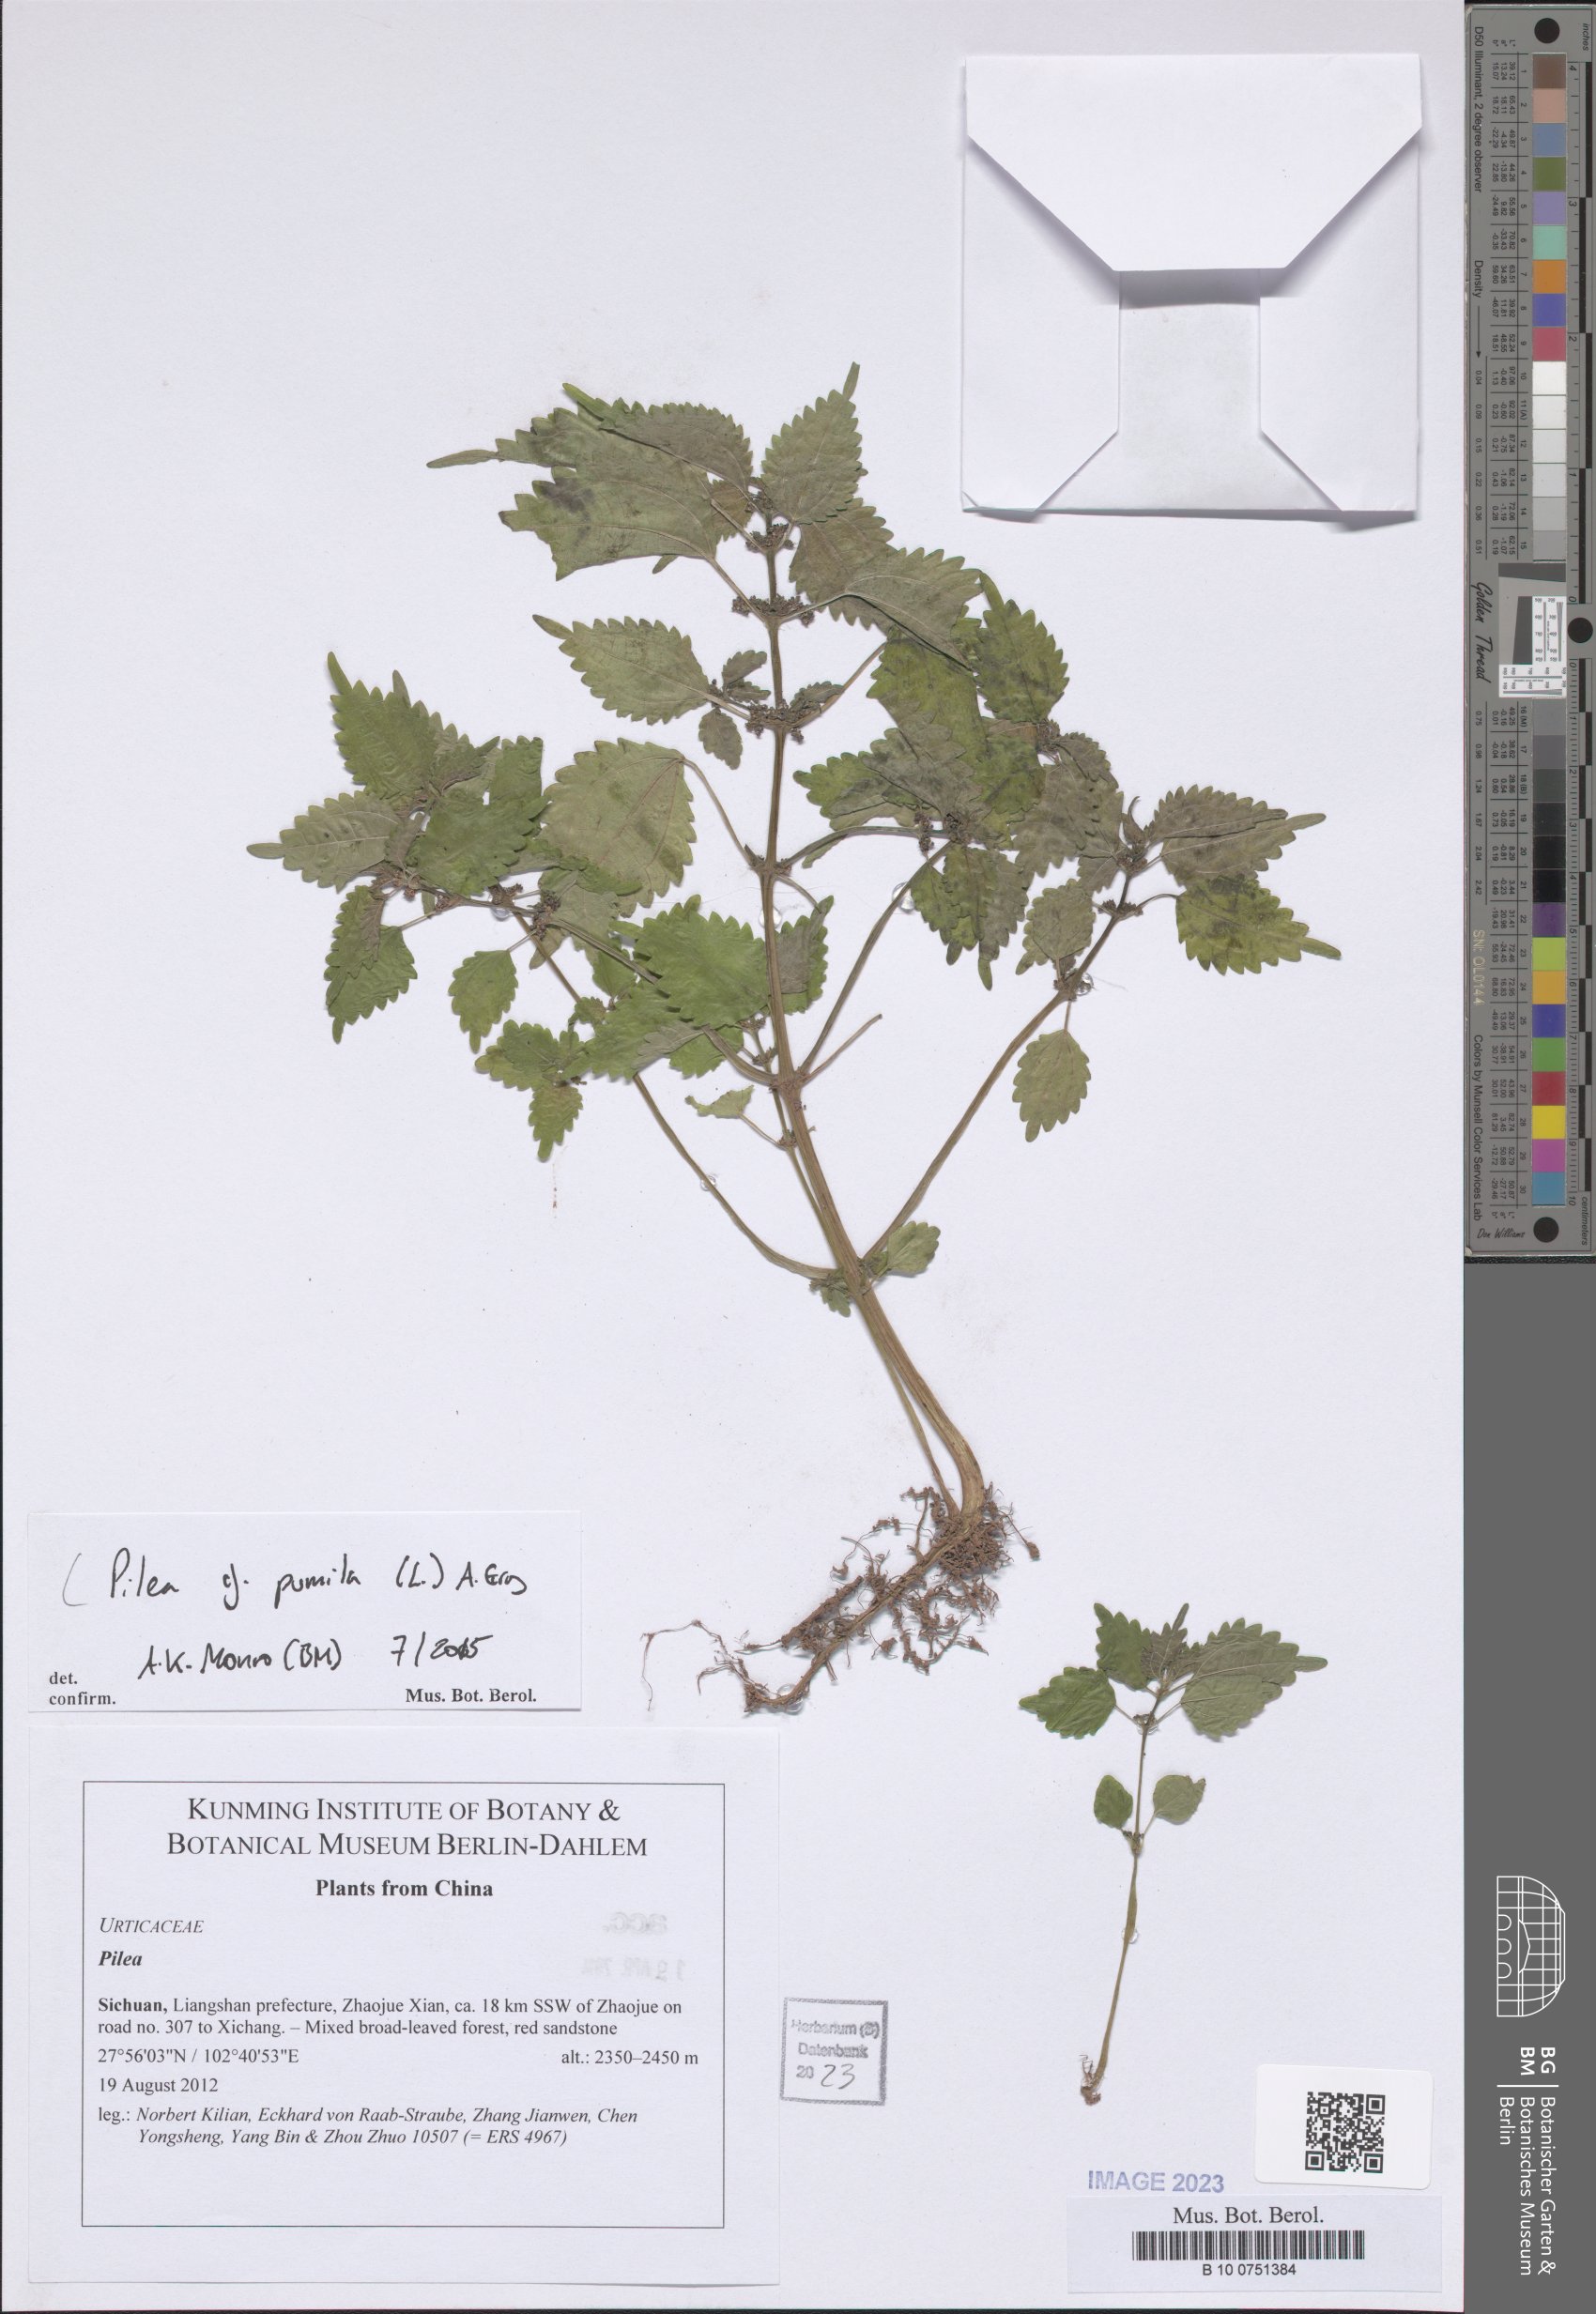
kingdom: Plantae
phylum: Tracheophyta
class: Magnoliopsida
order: Rosales
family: Urticaceae
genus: Pilea
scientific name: Pilea pumila
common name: Clearweed
